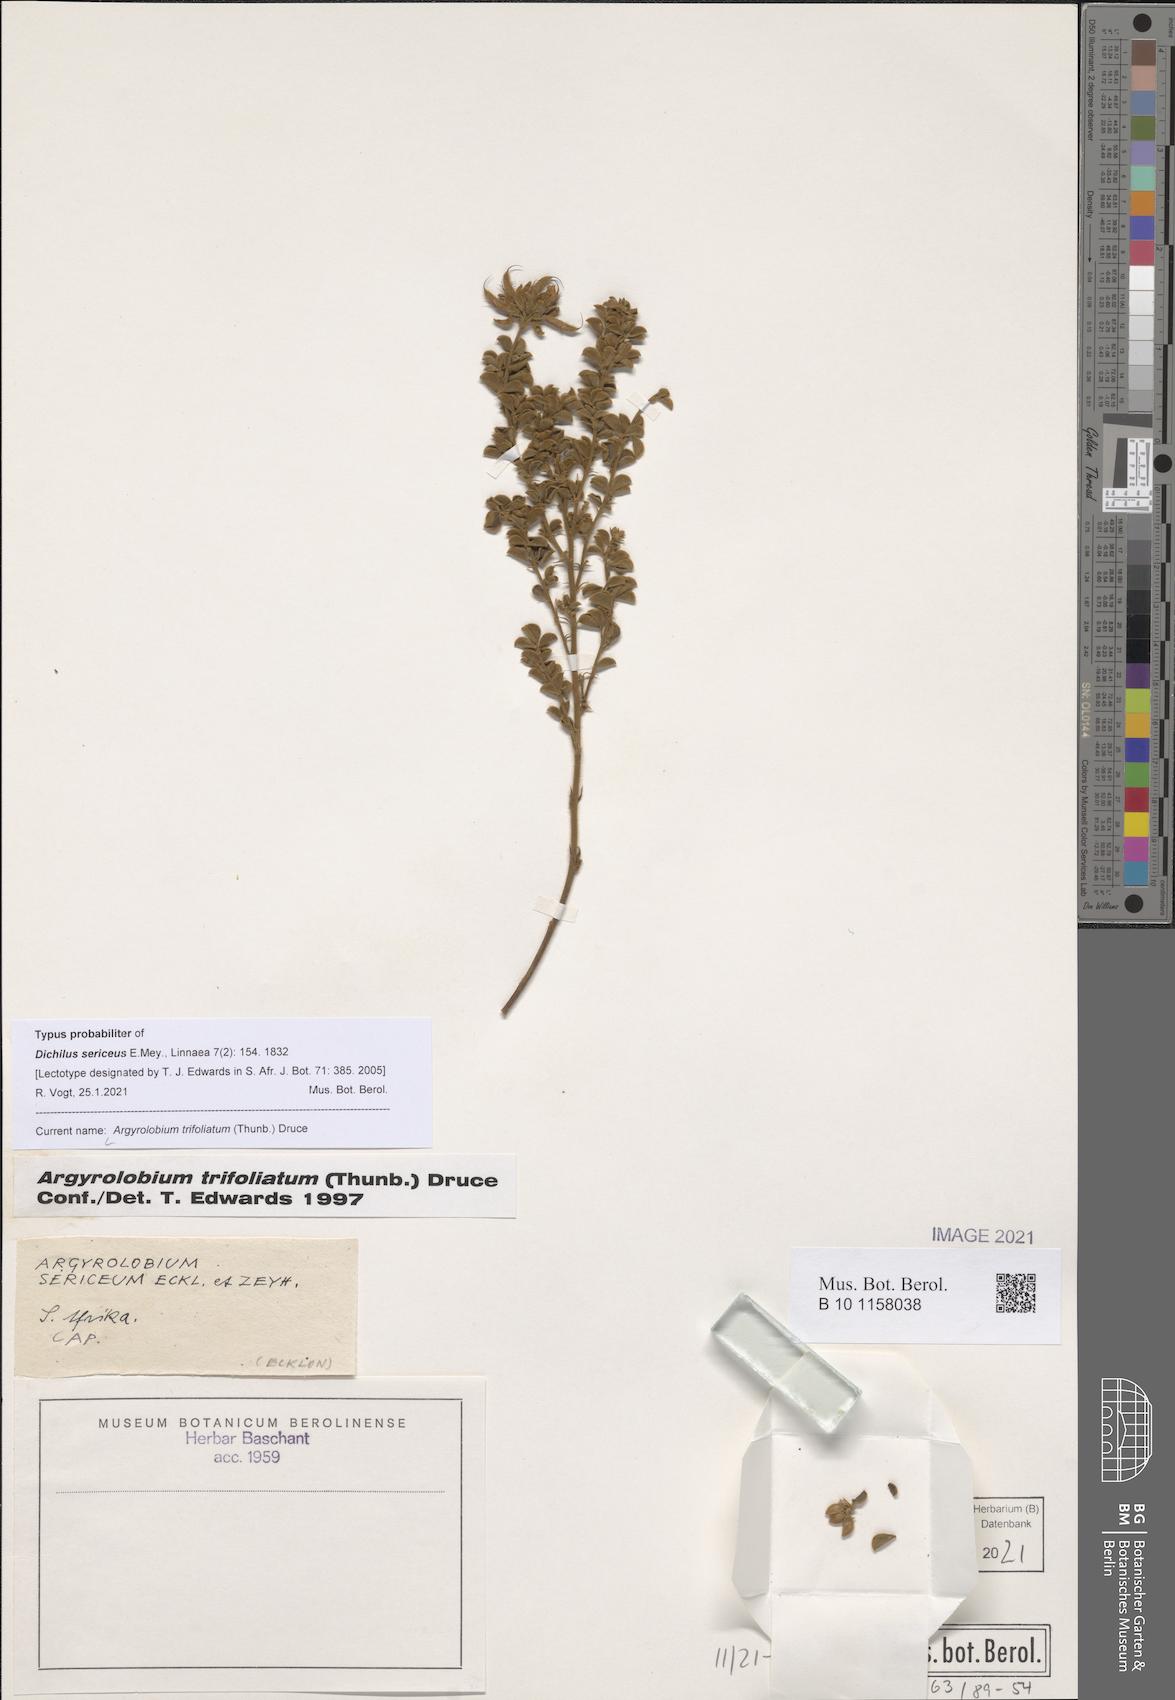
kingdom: Plantae
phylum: Tracheophyta
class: Magnoliopsida
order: Fabales
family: Fabaceae
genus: Argyrolobium
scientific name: Argyrolobium trifoliatum
